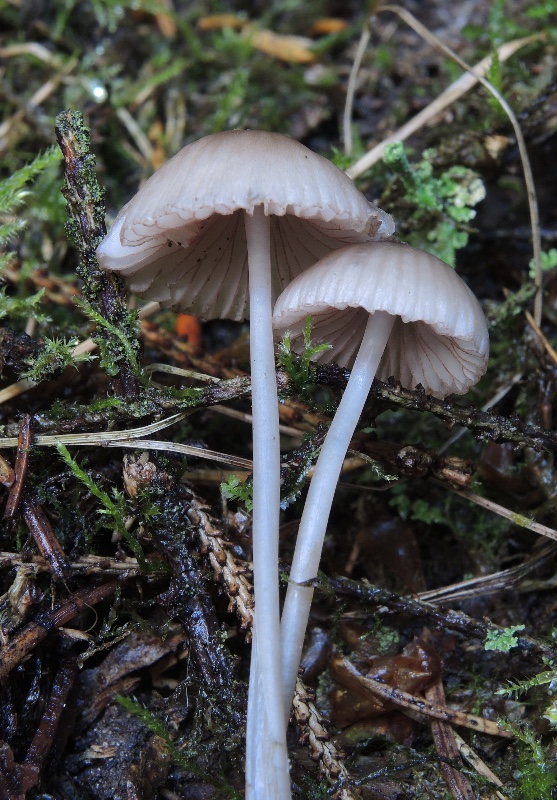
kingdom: Fungi
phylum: Basidiomycota
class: Agaricomycetes
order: Agaricales
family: Mycenaceae
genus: Mycena
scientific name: Mycena rubromarginata
